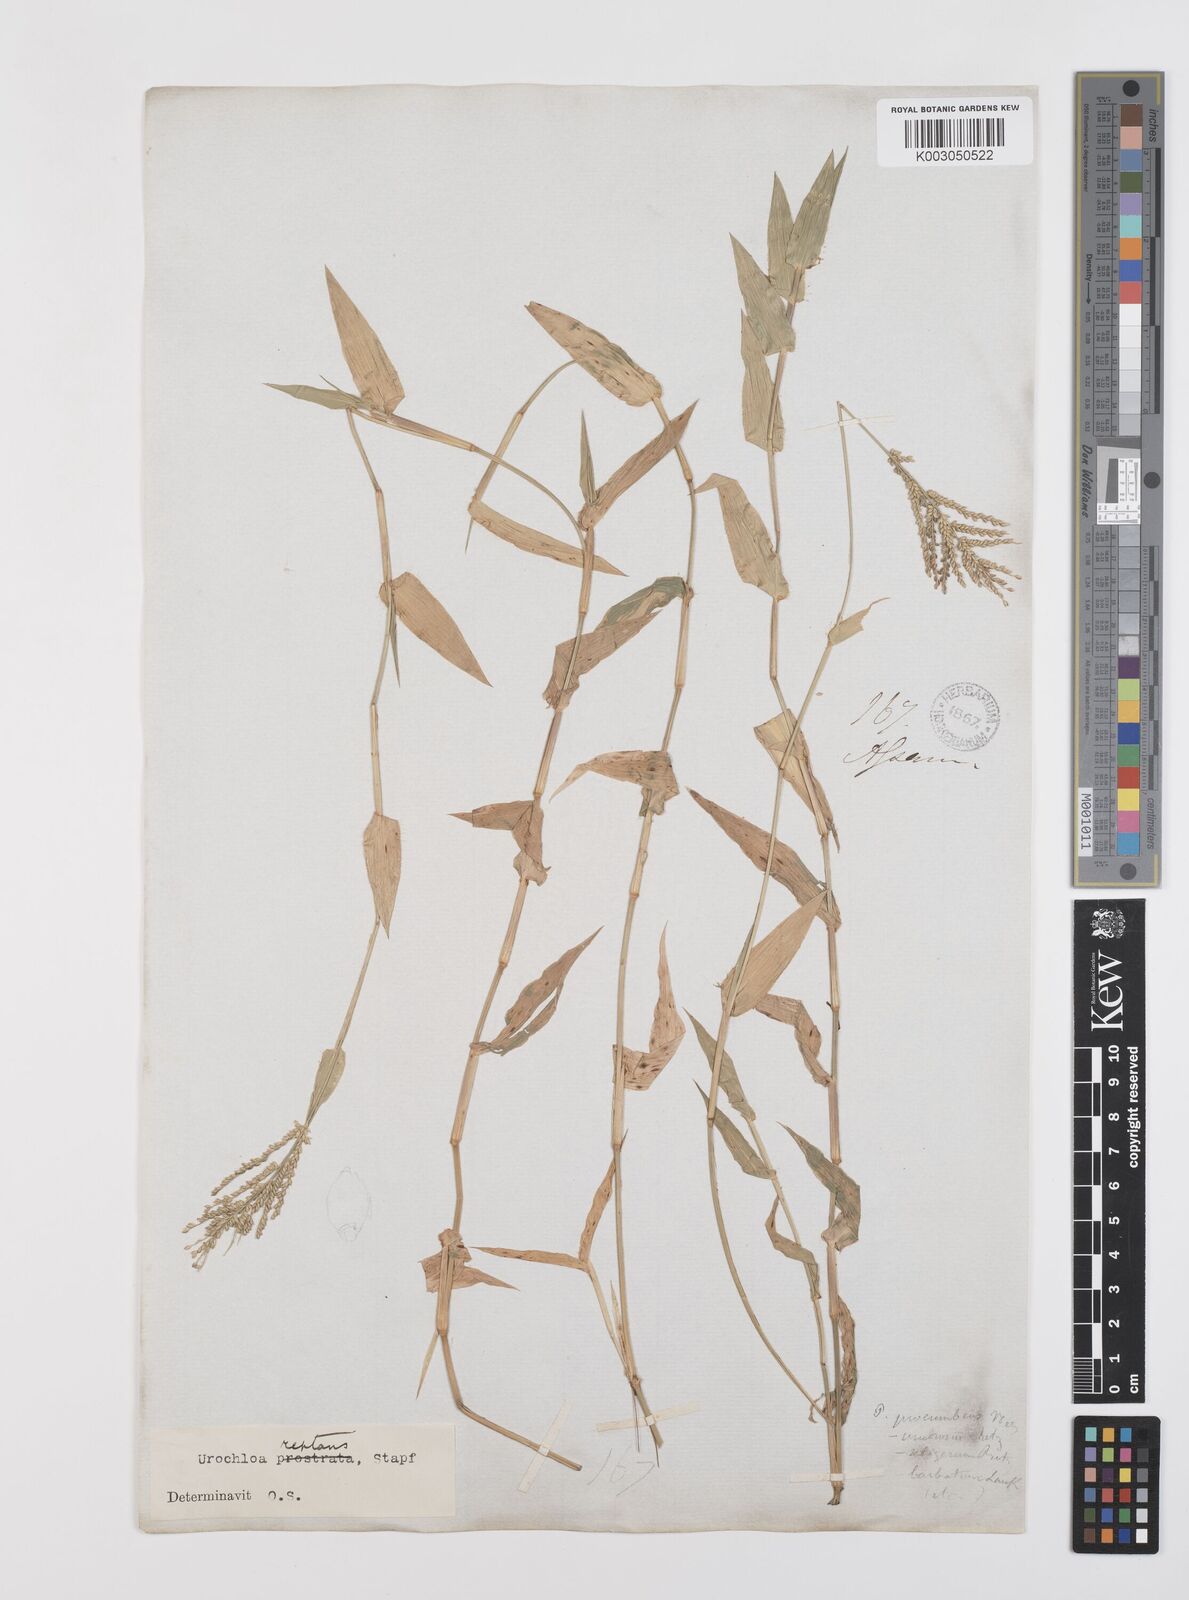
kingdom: Plantae
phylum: Tracheophyta
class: Liliopsida
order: Poales
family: Poaceae
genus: Urochloa
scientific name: Urochloa reptans
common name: Sprawling signalgrass
